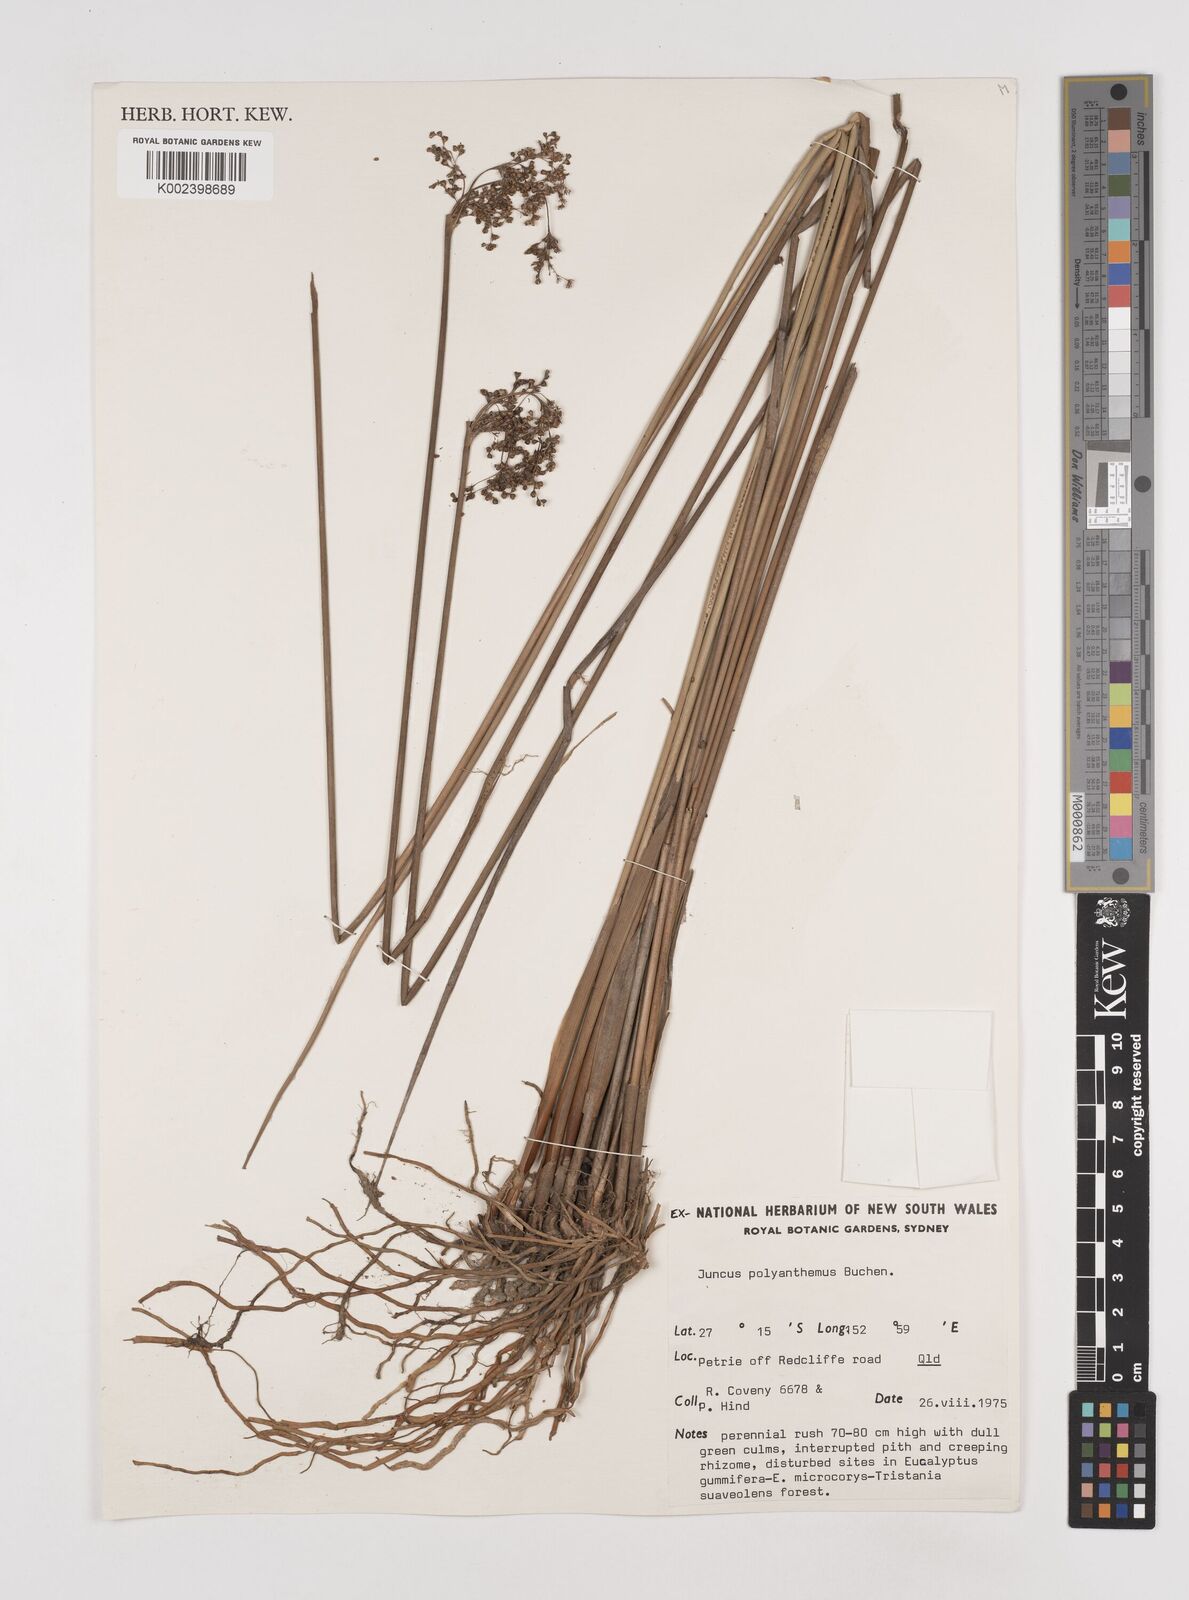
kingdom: Plantae
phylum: Tracheophyta
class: Liliopsida
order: Poales
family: Juncaceae
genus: Juncus
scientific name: Juncus polyanthemus
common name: Manyflower rush
